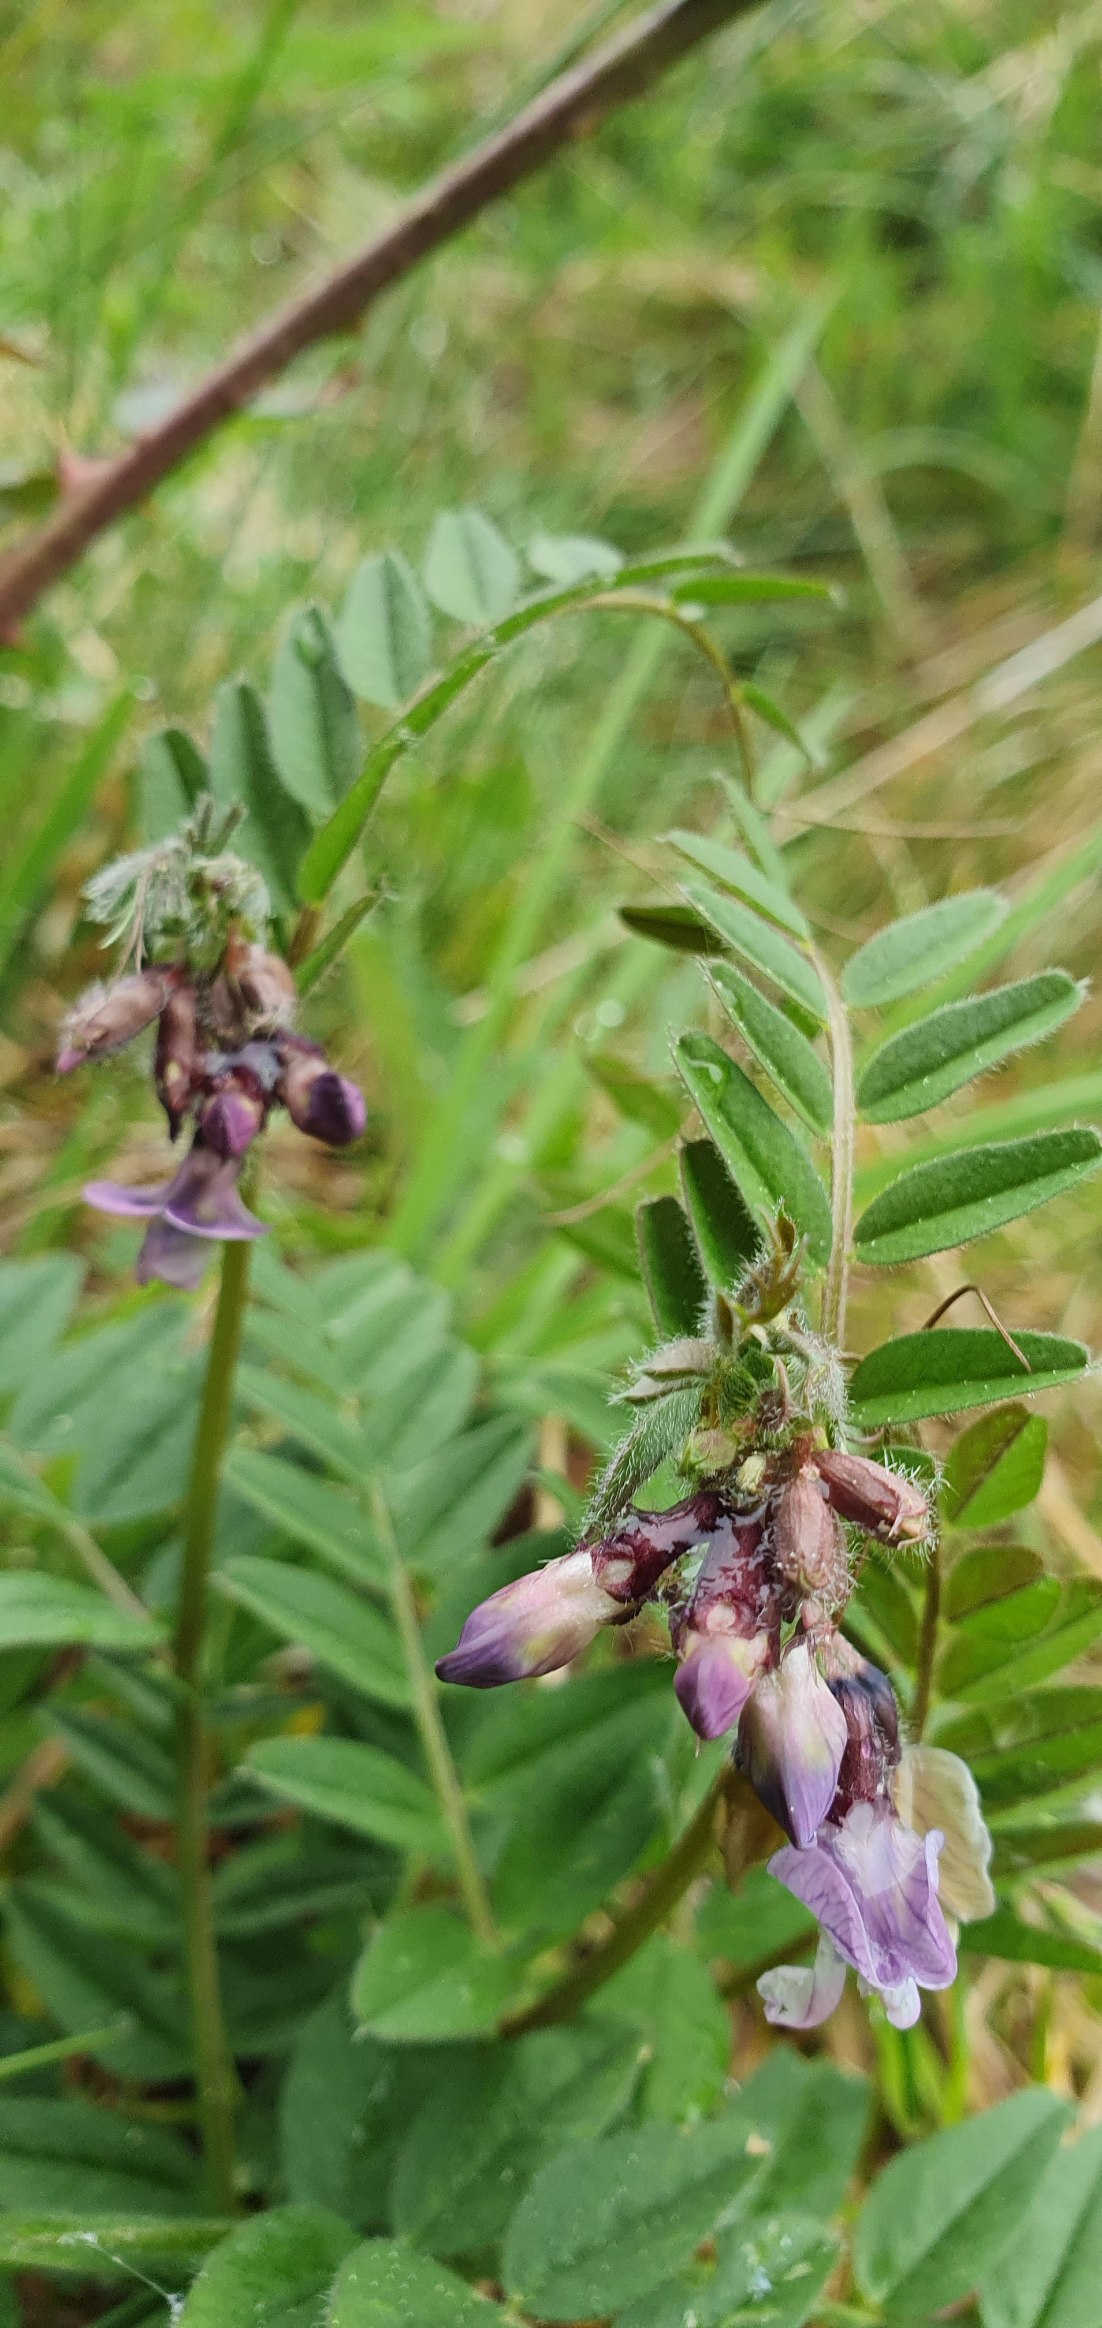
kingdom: Plantae
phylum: Tracheophyta
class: Magnoliopsida
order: Fabales
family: Fabaceae
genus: Vicia
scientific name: Vicia sepium
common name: Gærde-vikke
